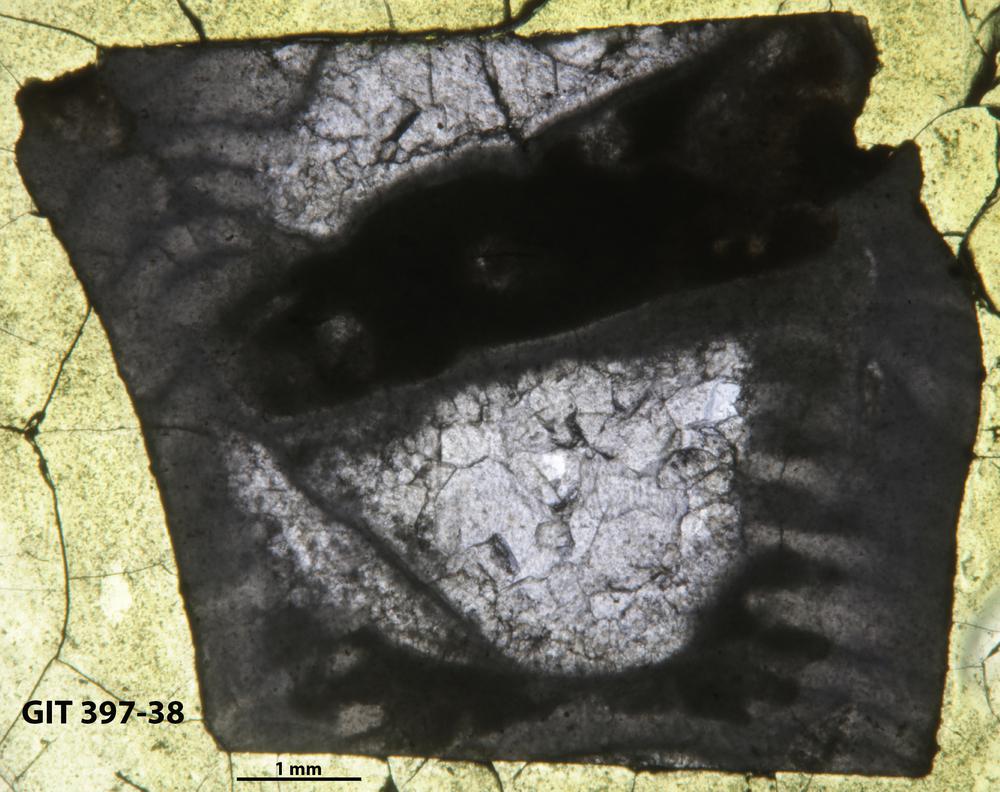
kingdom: Animalia
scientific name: Animalia
